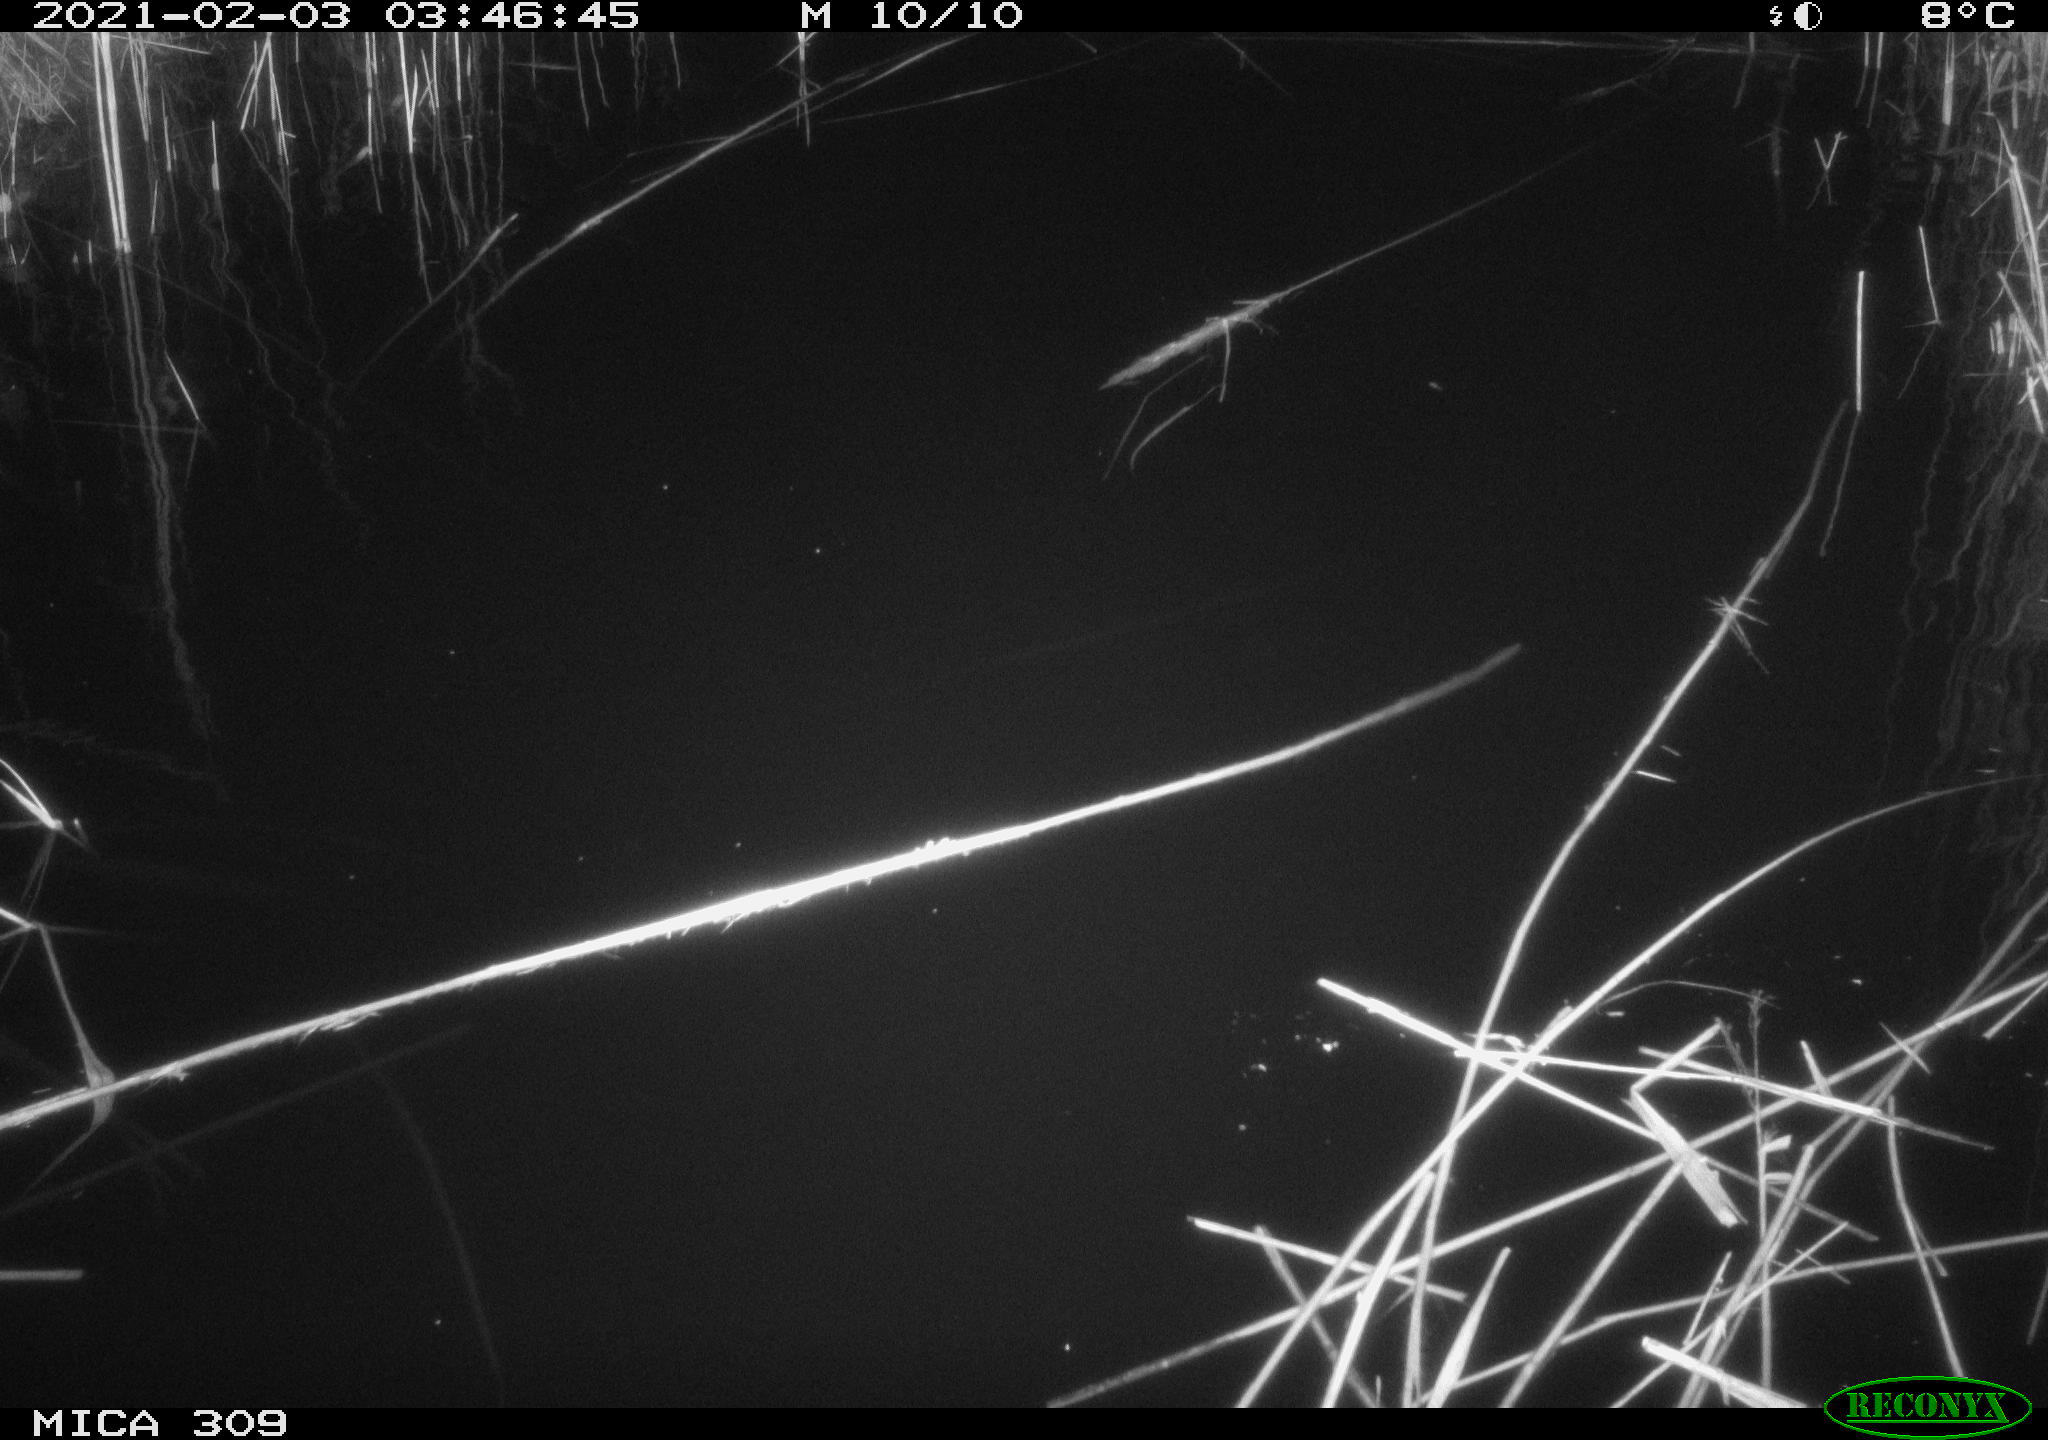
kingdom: Animalia
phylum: Chordata
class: Mammalia
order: Rodentia
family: Muridae
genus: Rattus
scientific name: Rattus norvegicus
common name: Brown rat
